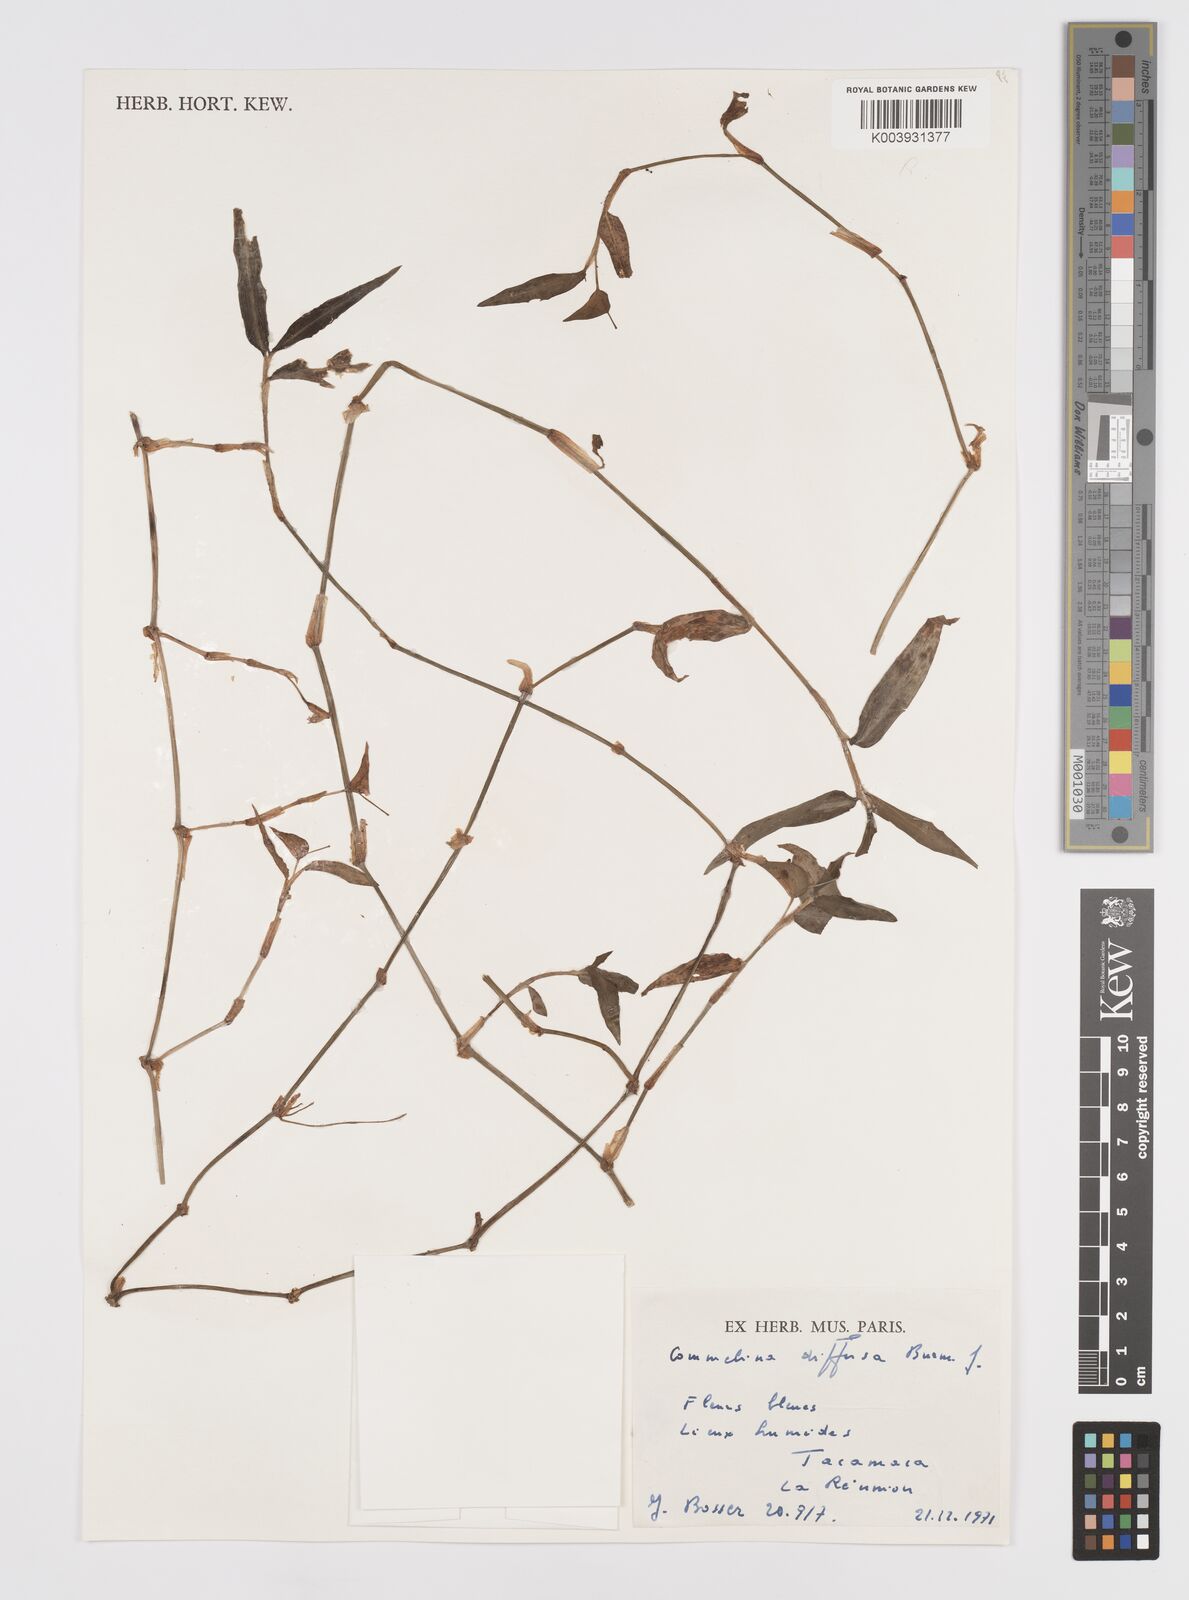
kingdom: Plantae
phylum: Tracheophyta
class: Liliopsida
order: Commelinales
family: Commelinaceae
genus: Murdannia
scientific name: Murdannia nudiflora
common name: Nakedstem dewflower
